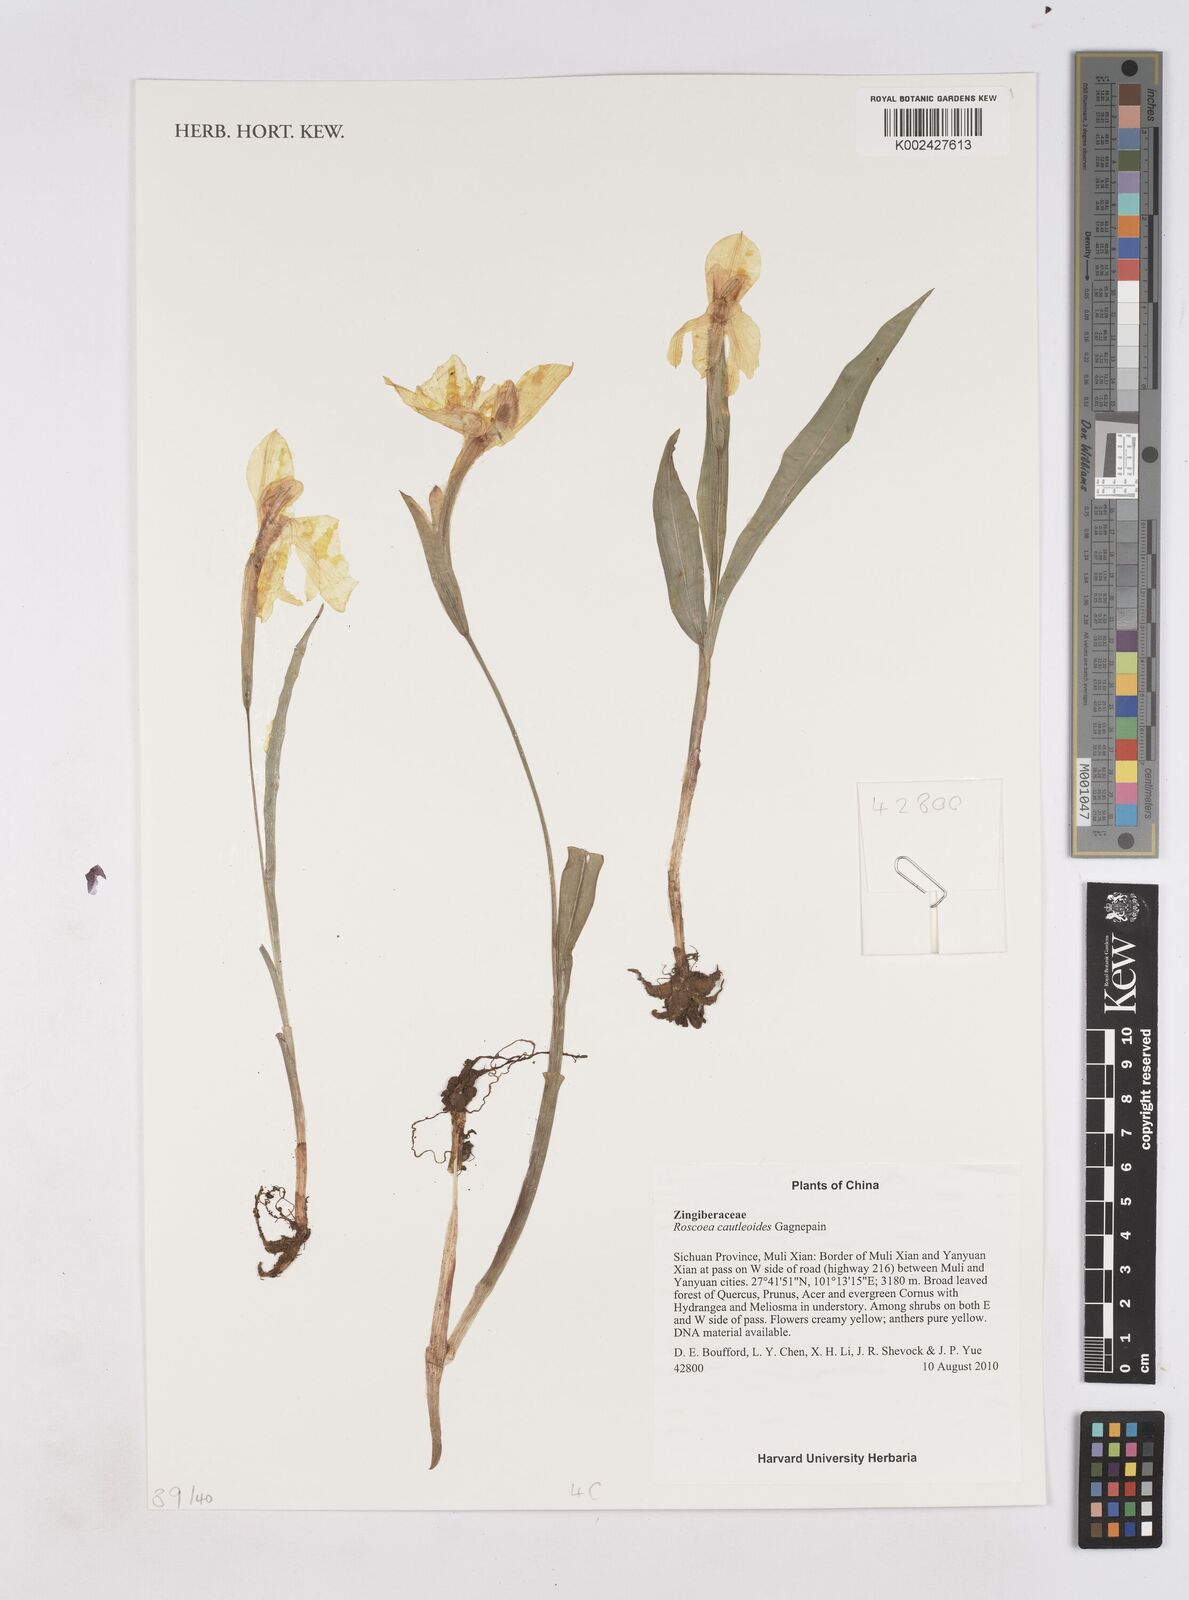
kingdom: Plantae
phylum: Tracheophyta
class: Liliopsida
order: Zingiberales
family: Zingiberaceae
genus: Roscoea
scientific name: Roscoea cautleyoides
